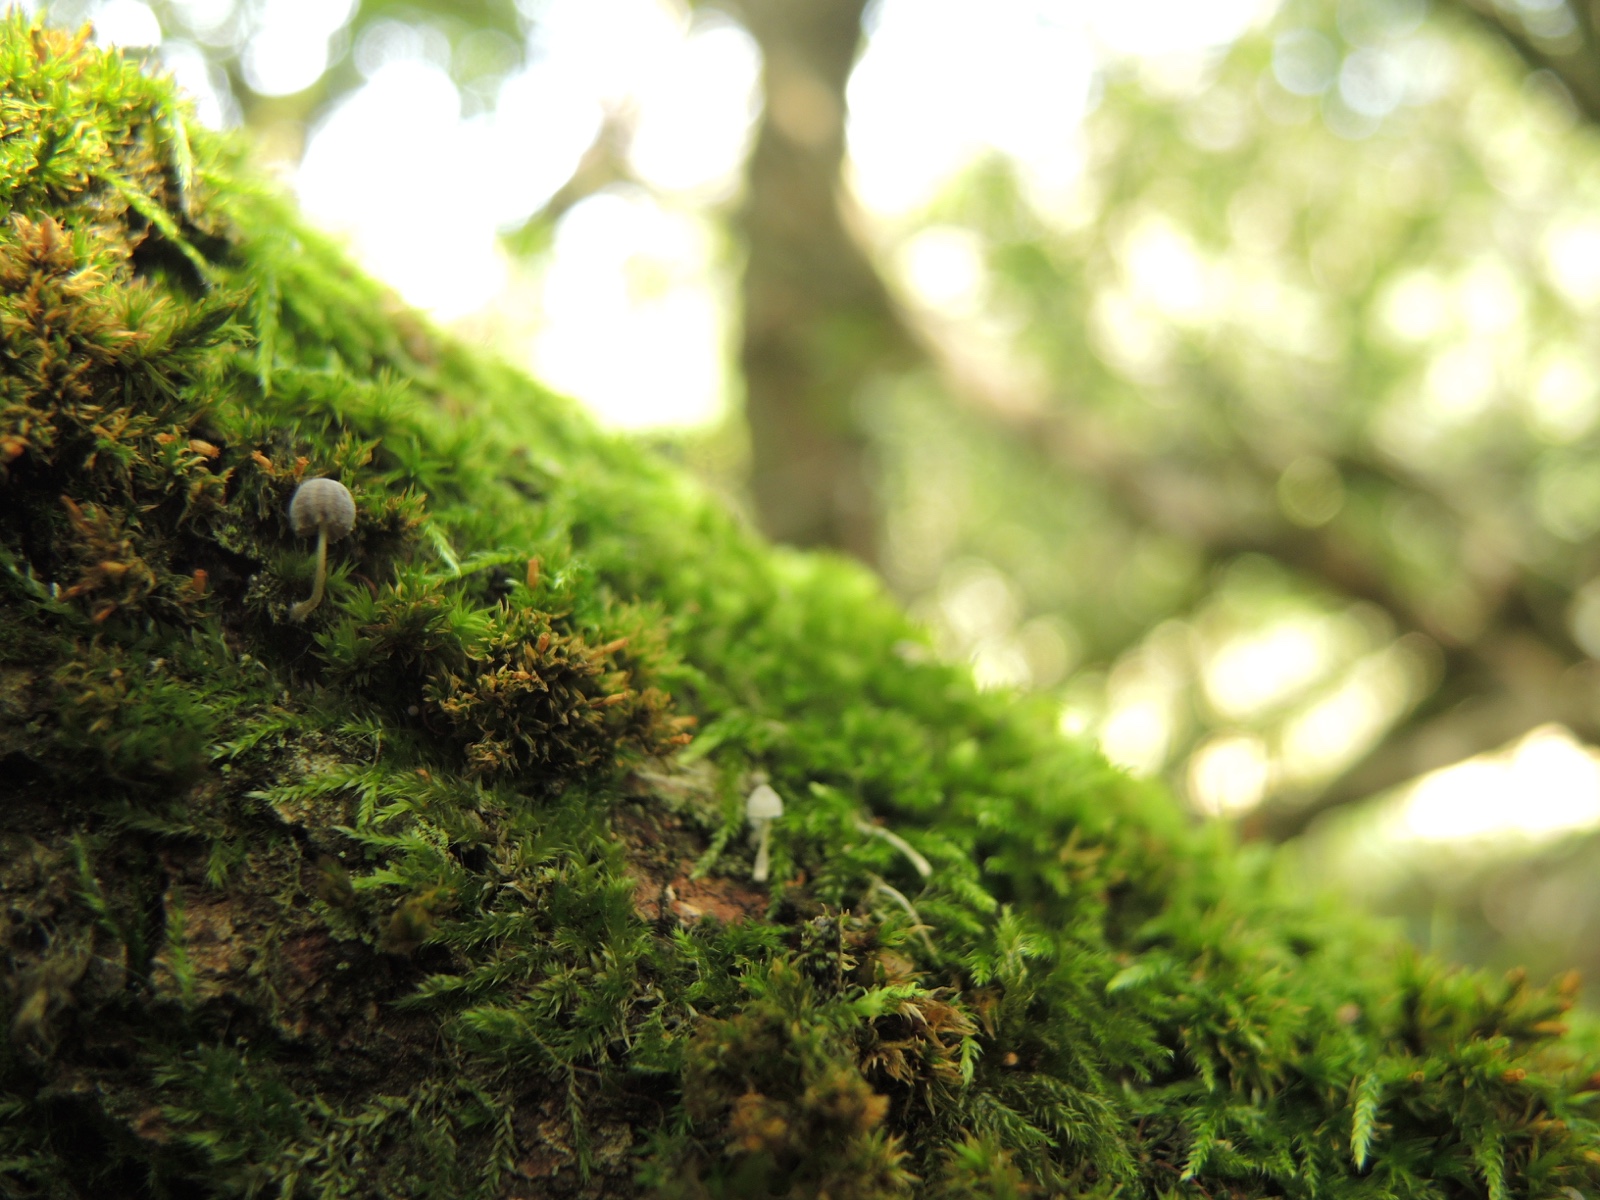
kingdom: Fungi
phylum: Basidiomycota
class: Agaricomycetes
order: Agaricales
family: Mycenaceae
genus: Mycena
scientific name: Mycena pseudocorticola
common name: gråblå bark-huesvamp
